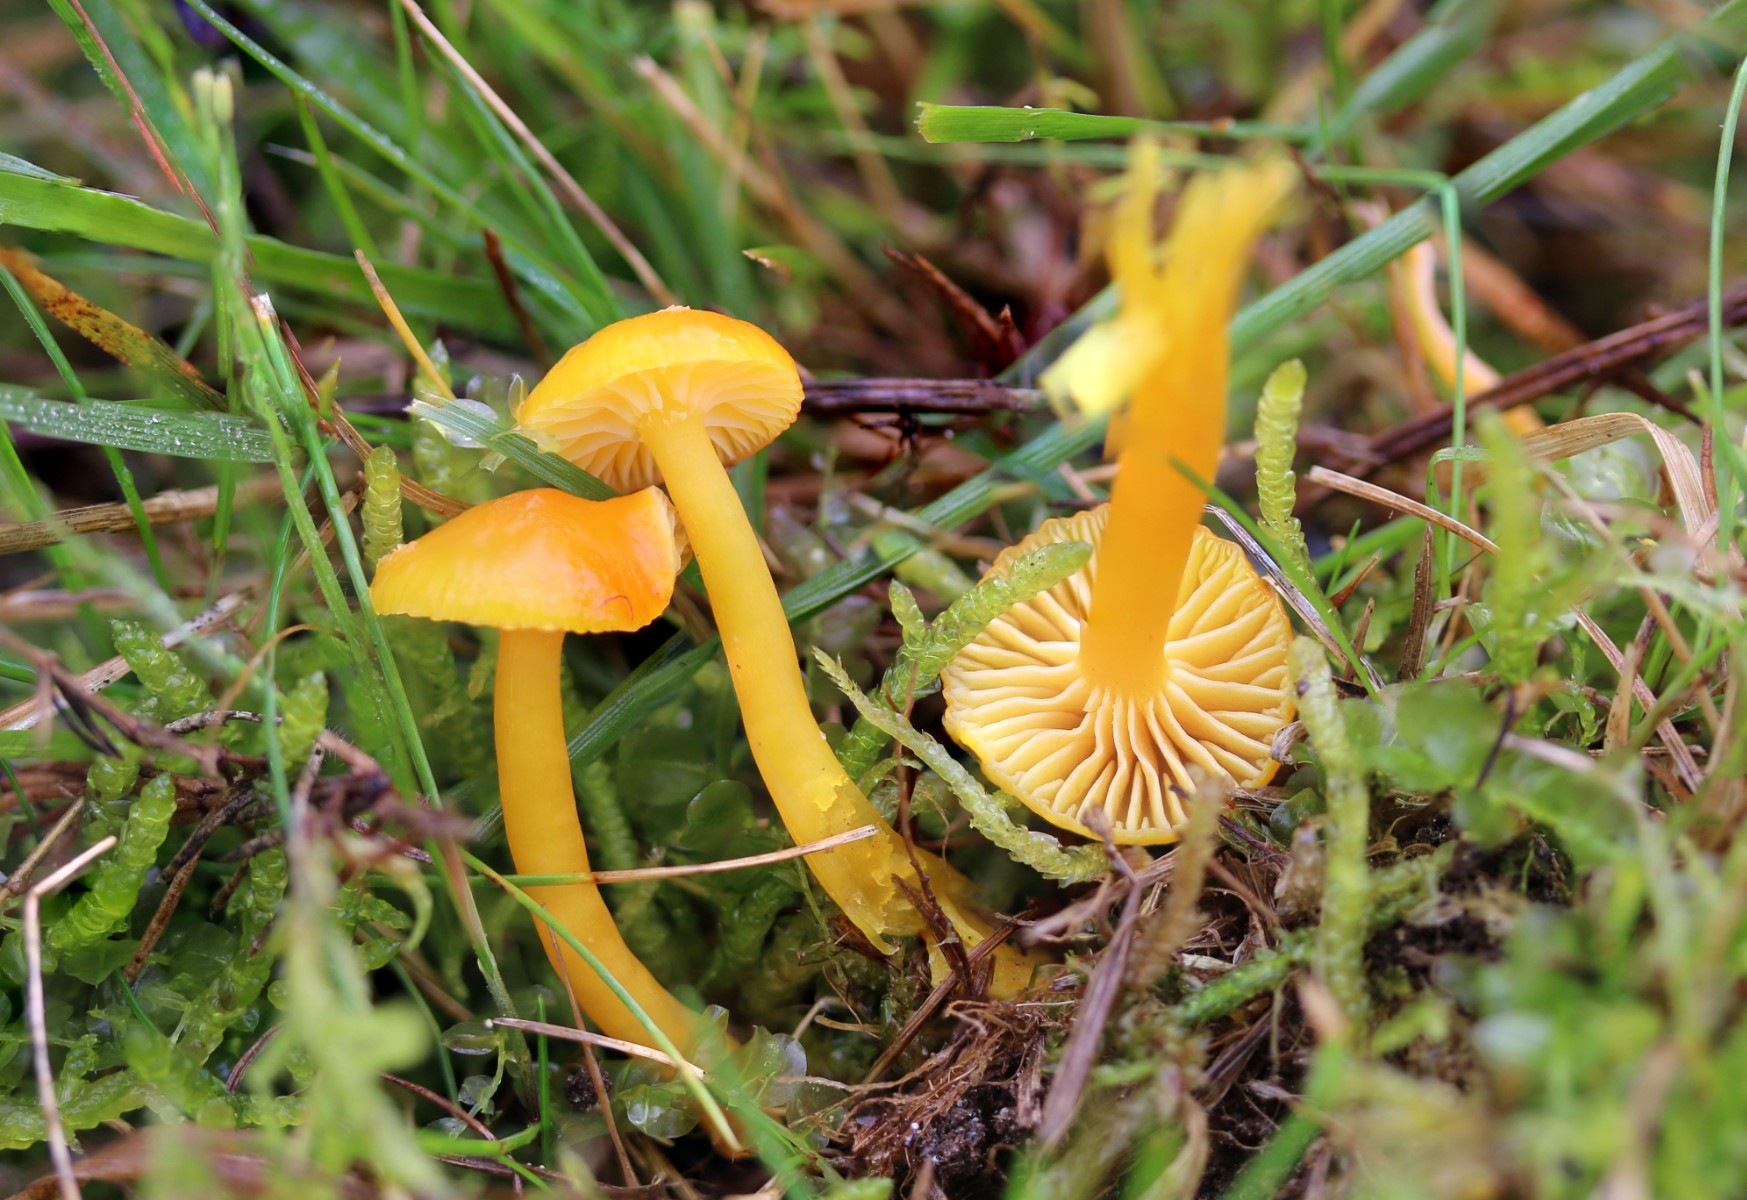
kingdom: Fungi
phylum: Basidiomycota
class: Agaricomycetes
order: Agaricales
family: Hygrophoraceae
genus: Hygrocybe
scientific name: Hygrocybe ceracea
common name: voksgul vokshat
